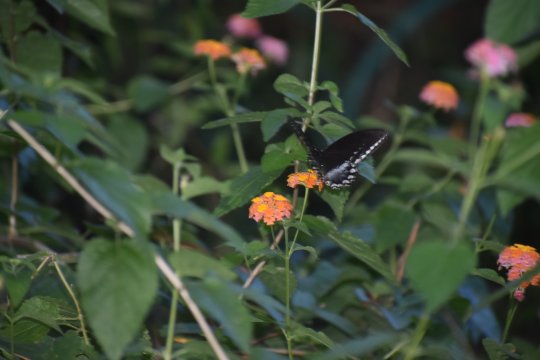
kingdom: Animalia
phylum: Arthropoda
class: Insecta
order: Lepidoptera
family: Papilionidae
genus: Pterourus
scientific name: Pterourus troilus
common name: Spicebush Swallowtail
